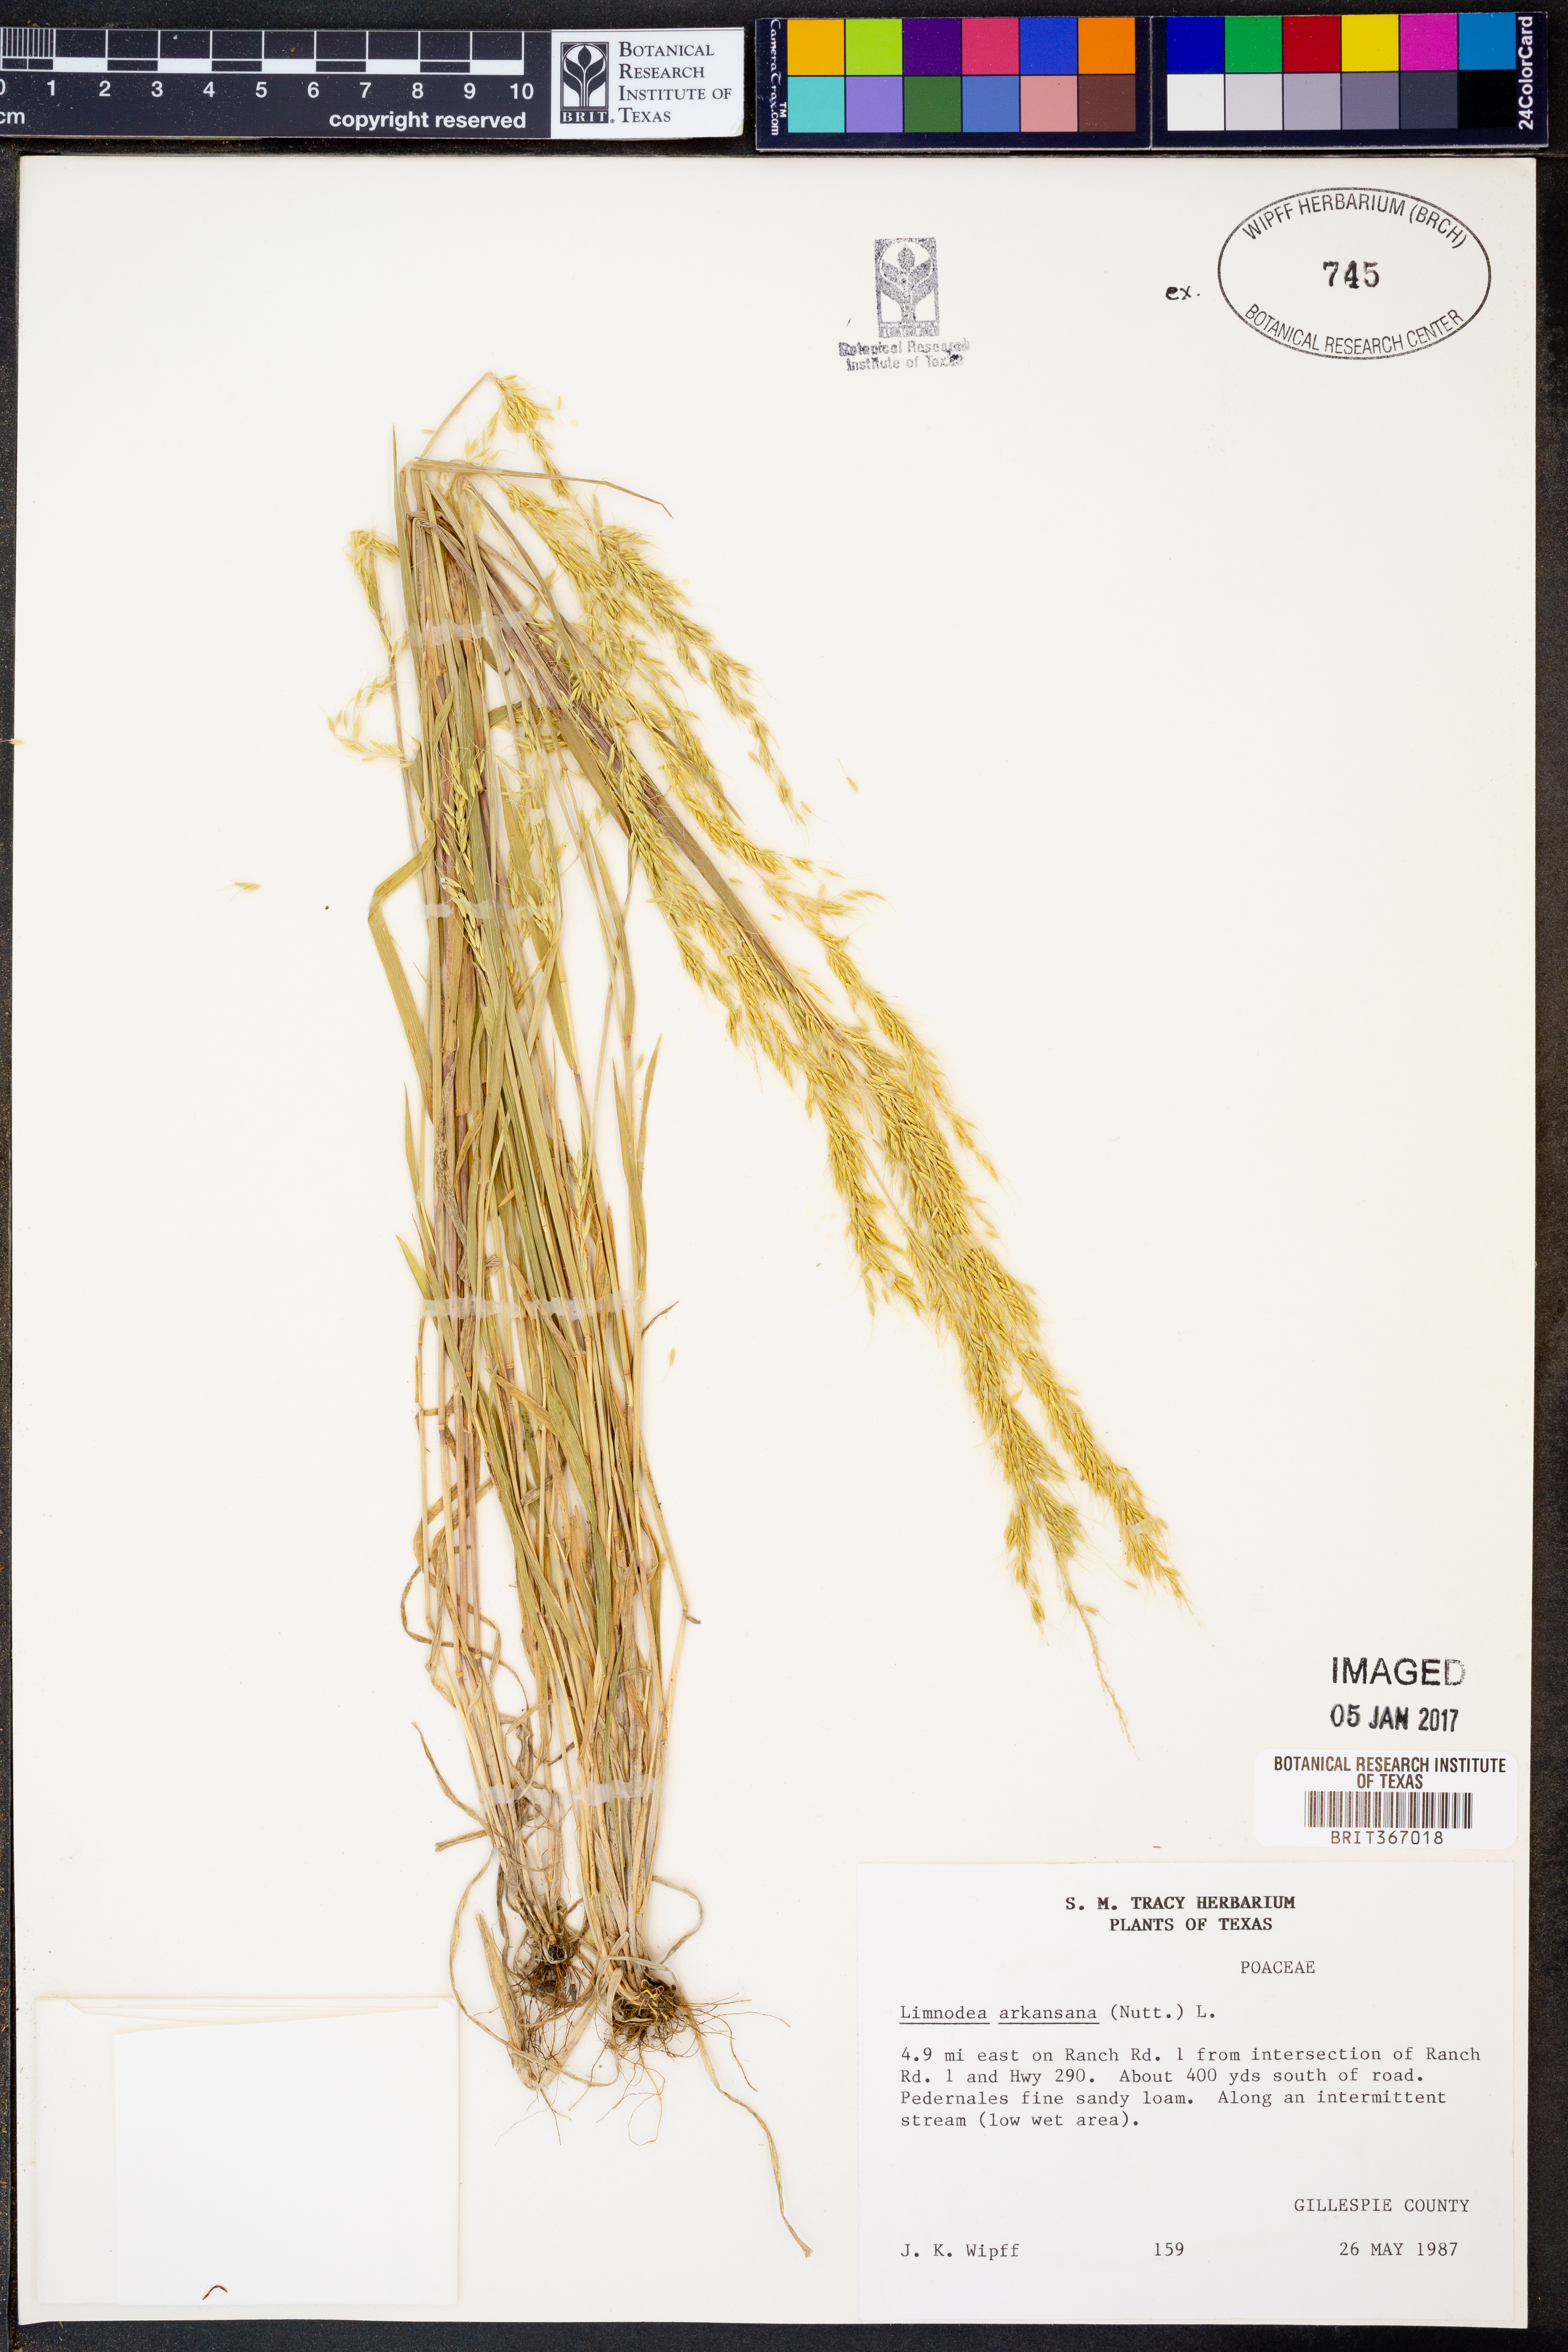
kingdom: Plantae
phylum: Tracheophyta
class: Liliopsida
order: Poales
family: Poaceae
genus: Limnodea
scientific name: Limnodea arkansana
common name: Ozark-grass
